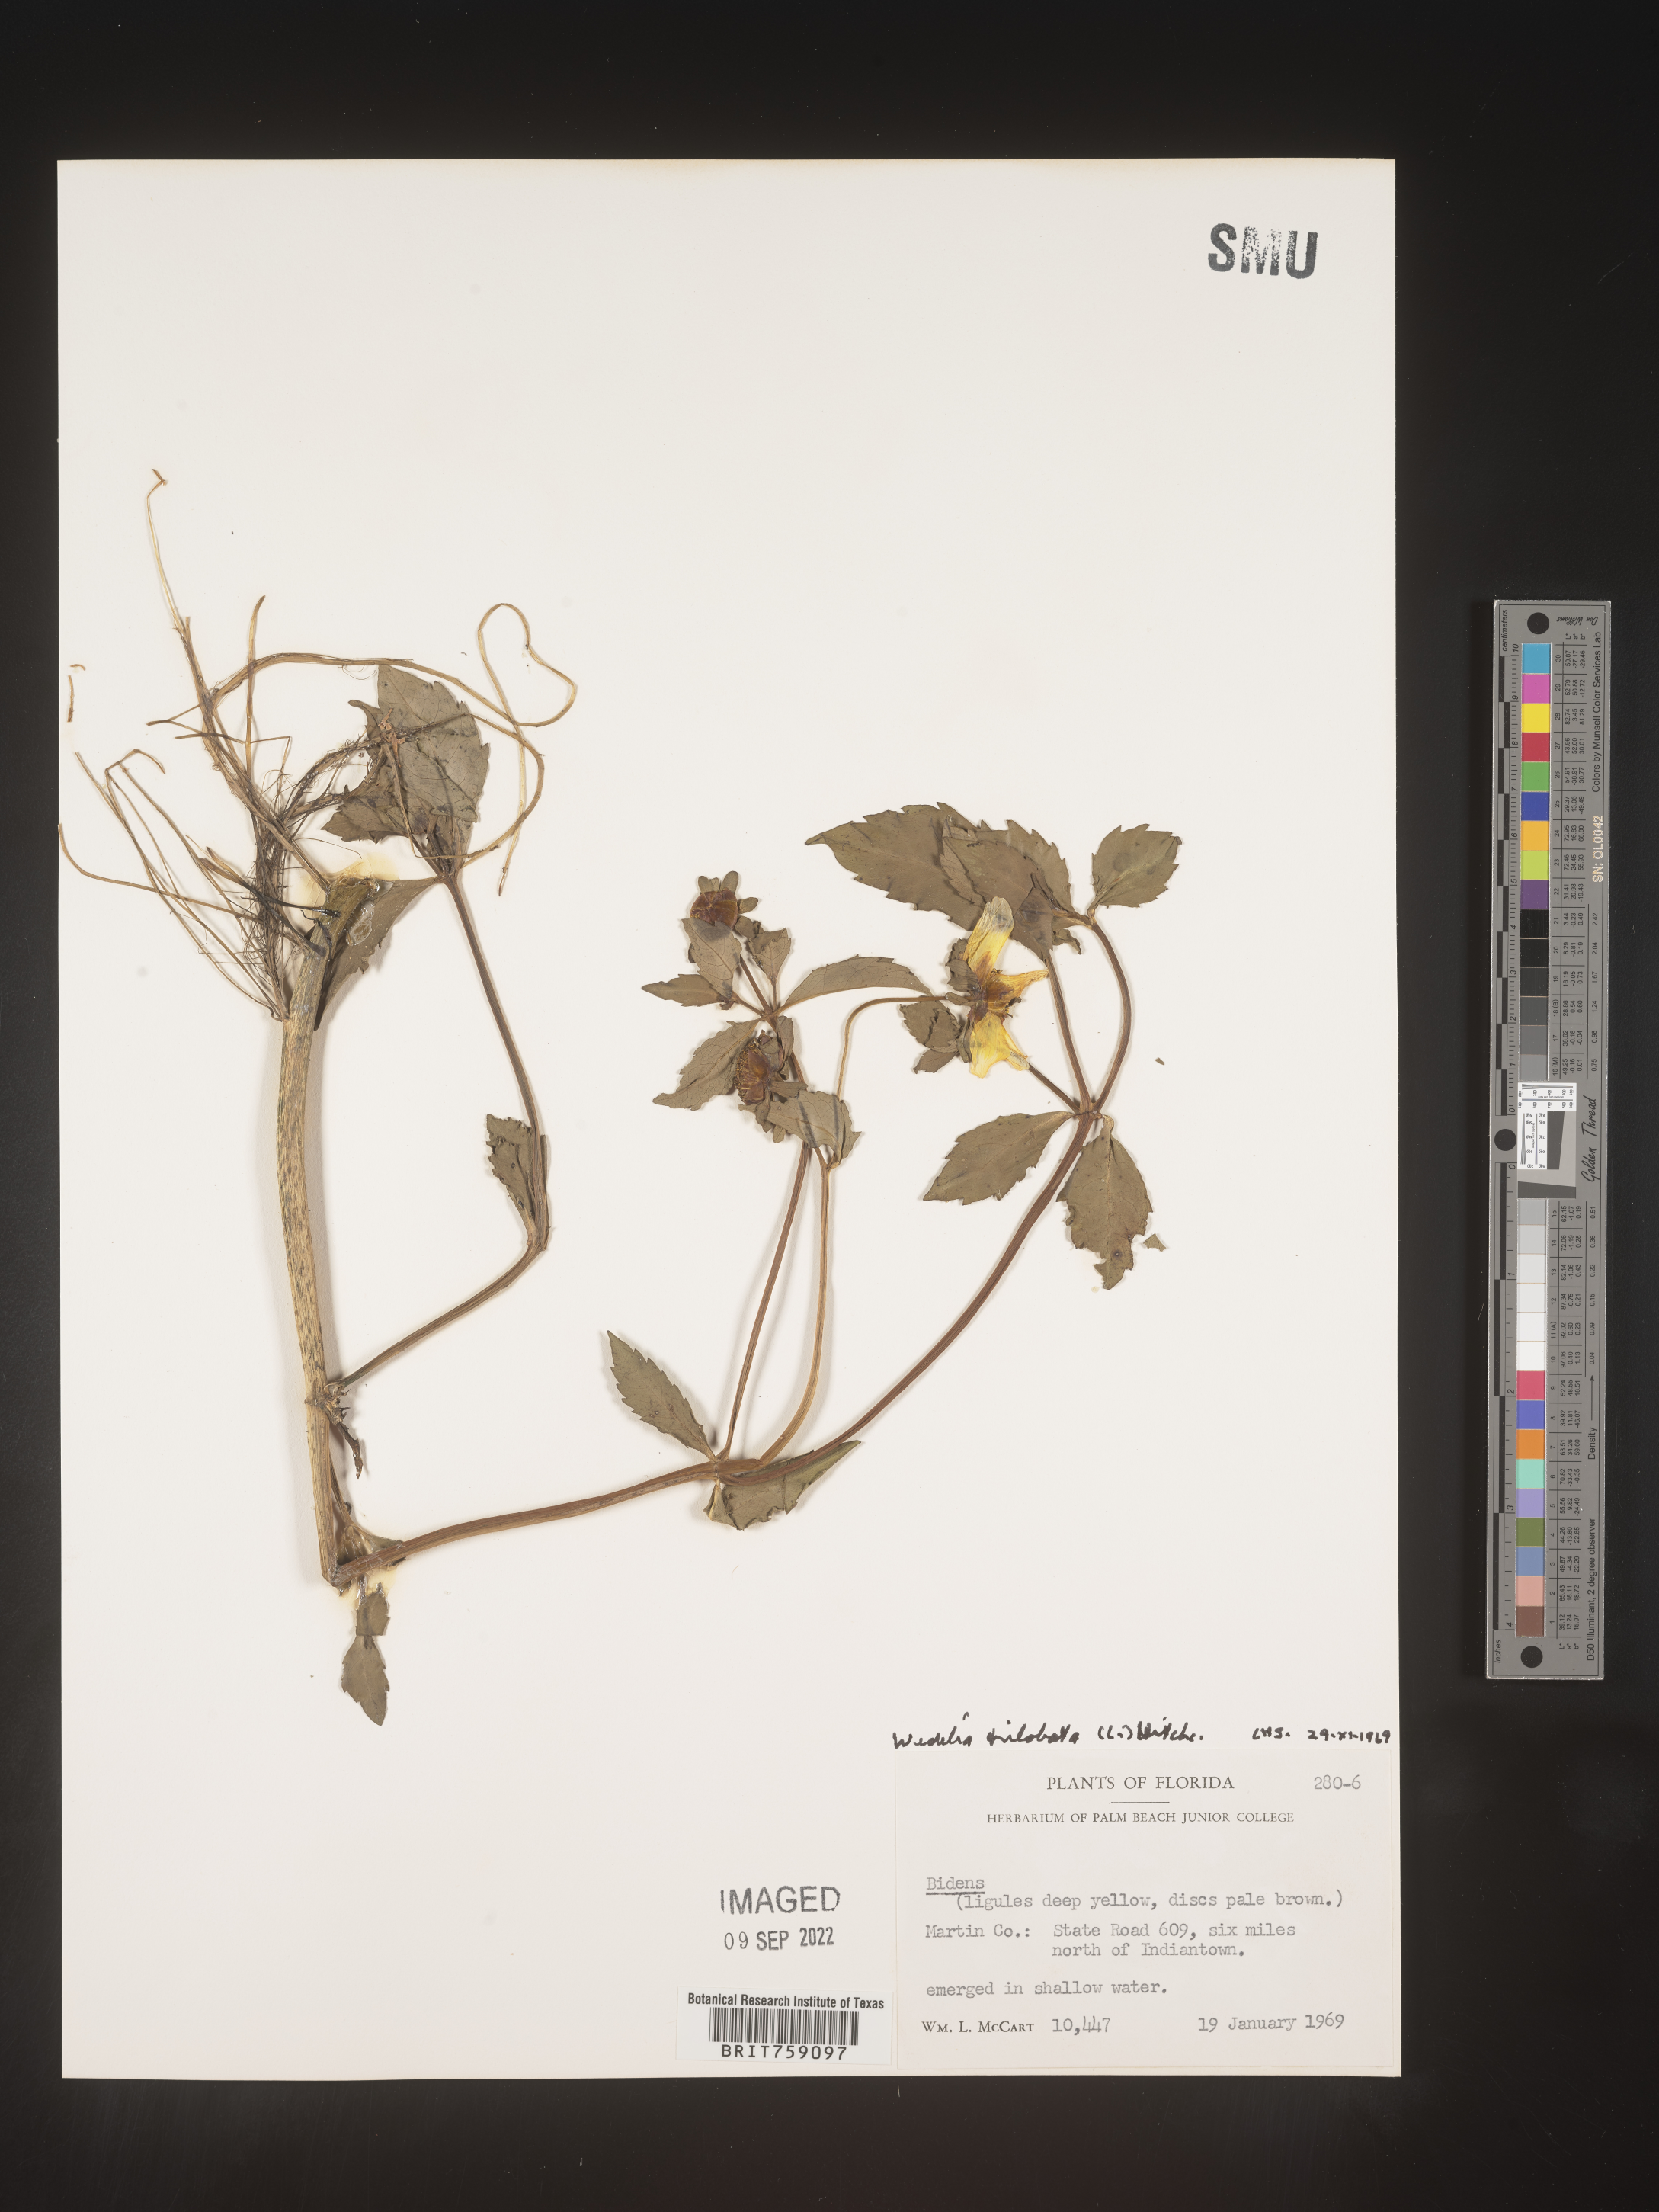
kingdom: Plantae
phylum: Tracheophyta
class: Magnoliopsida
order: Asterales
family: Asteraceae
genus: Sphagneticola
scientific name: Sphagneticola trilobata
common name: Bay biscayne creeping-oxeye
